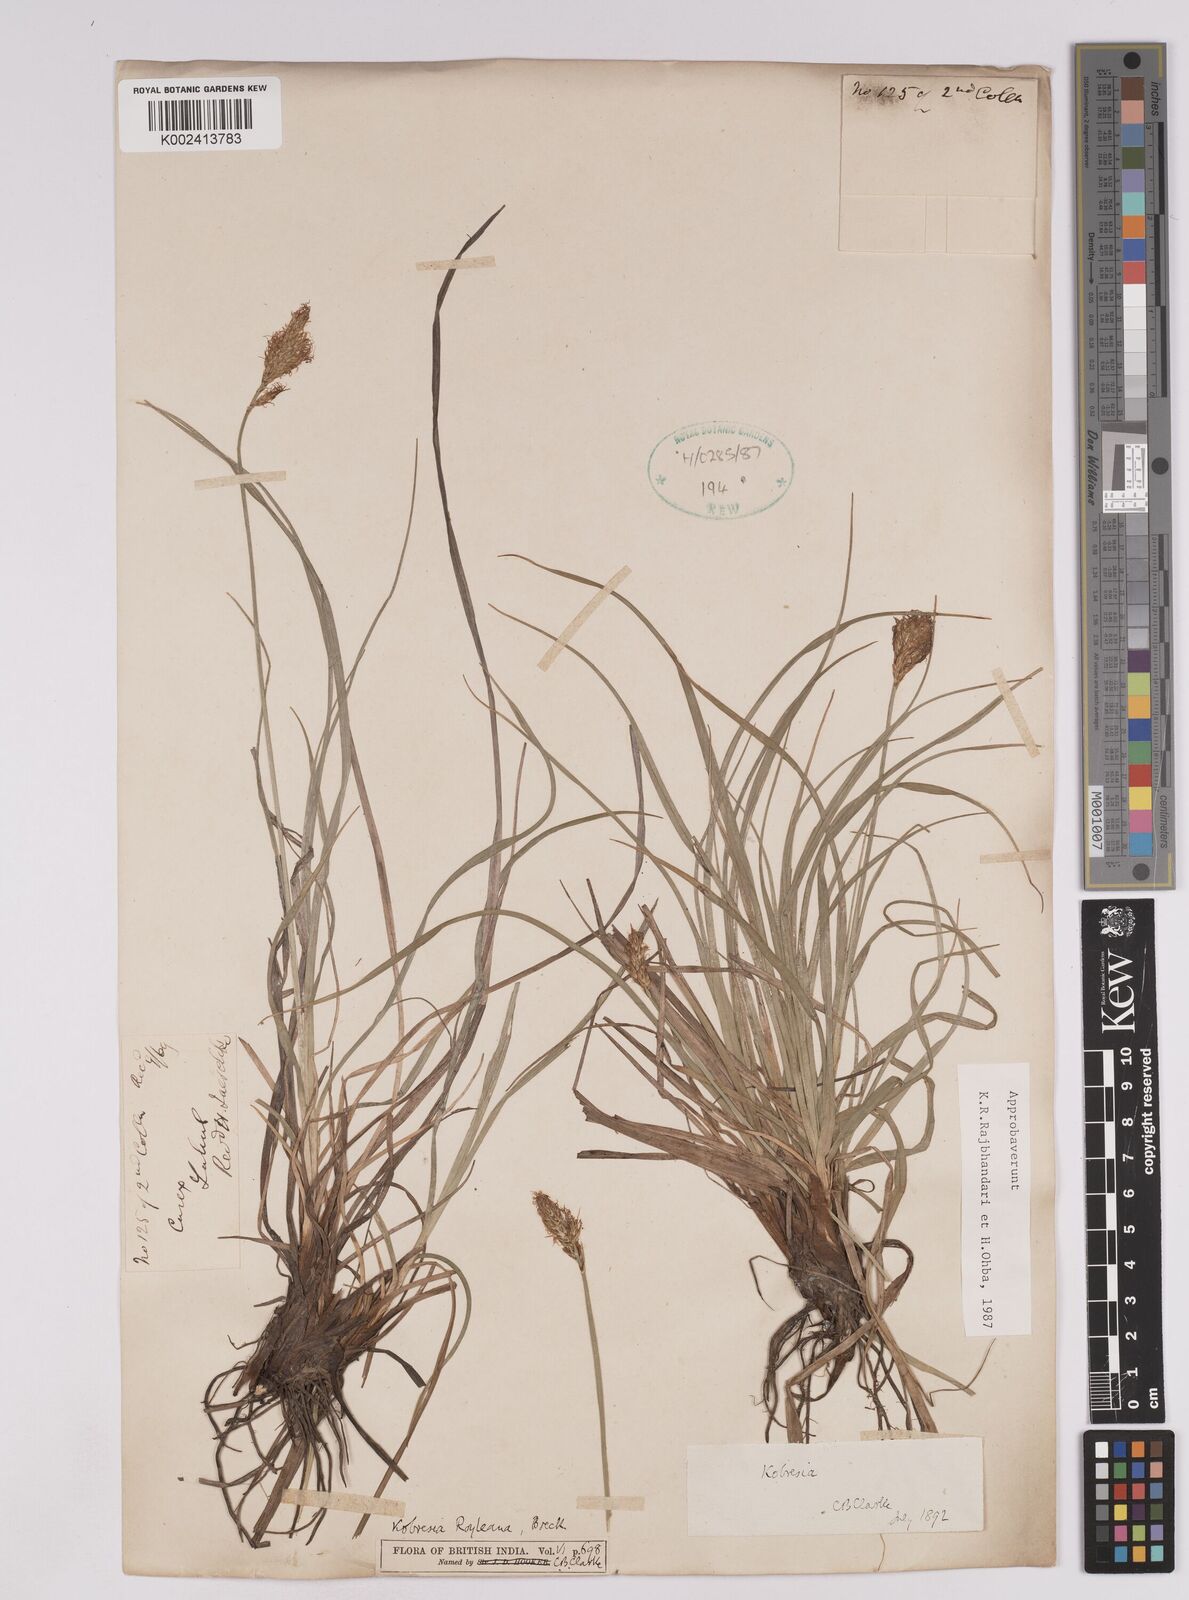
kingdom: Plantae
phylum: Tracheophyta
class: Liliopsida
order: Poales
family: Cyperaceae
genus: Carex
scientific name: Carex kokanica
